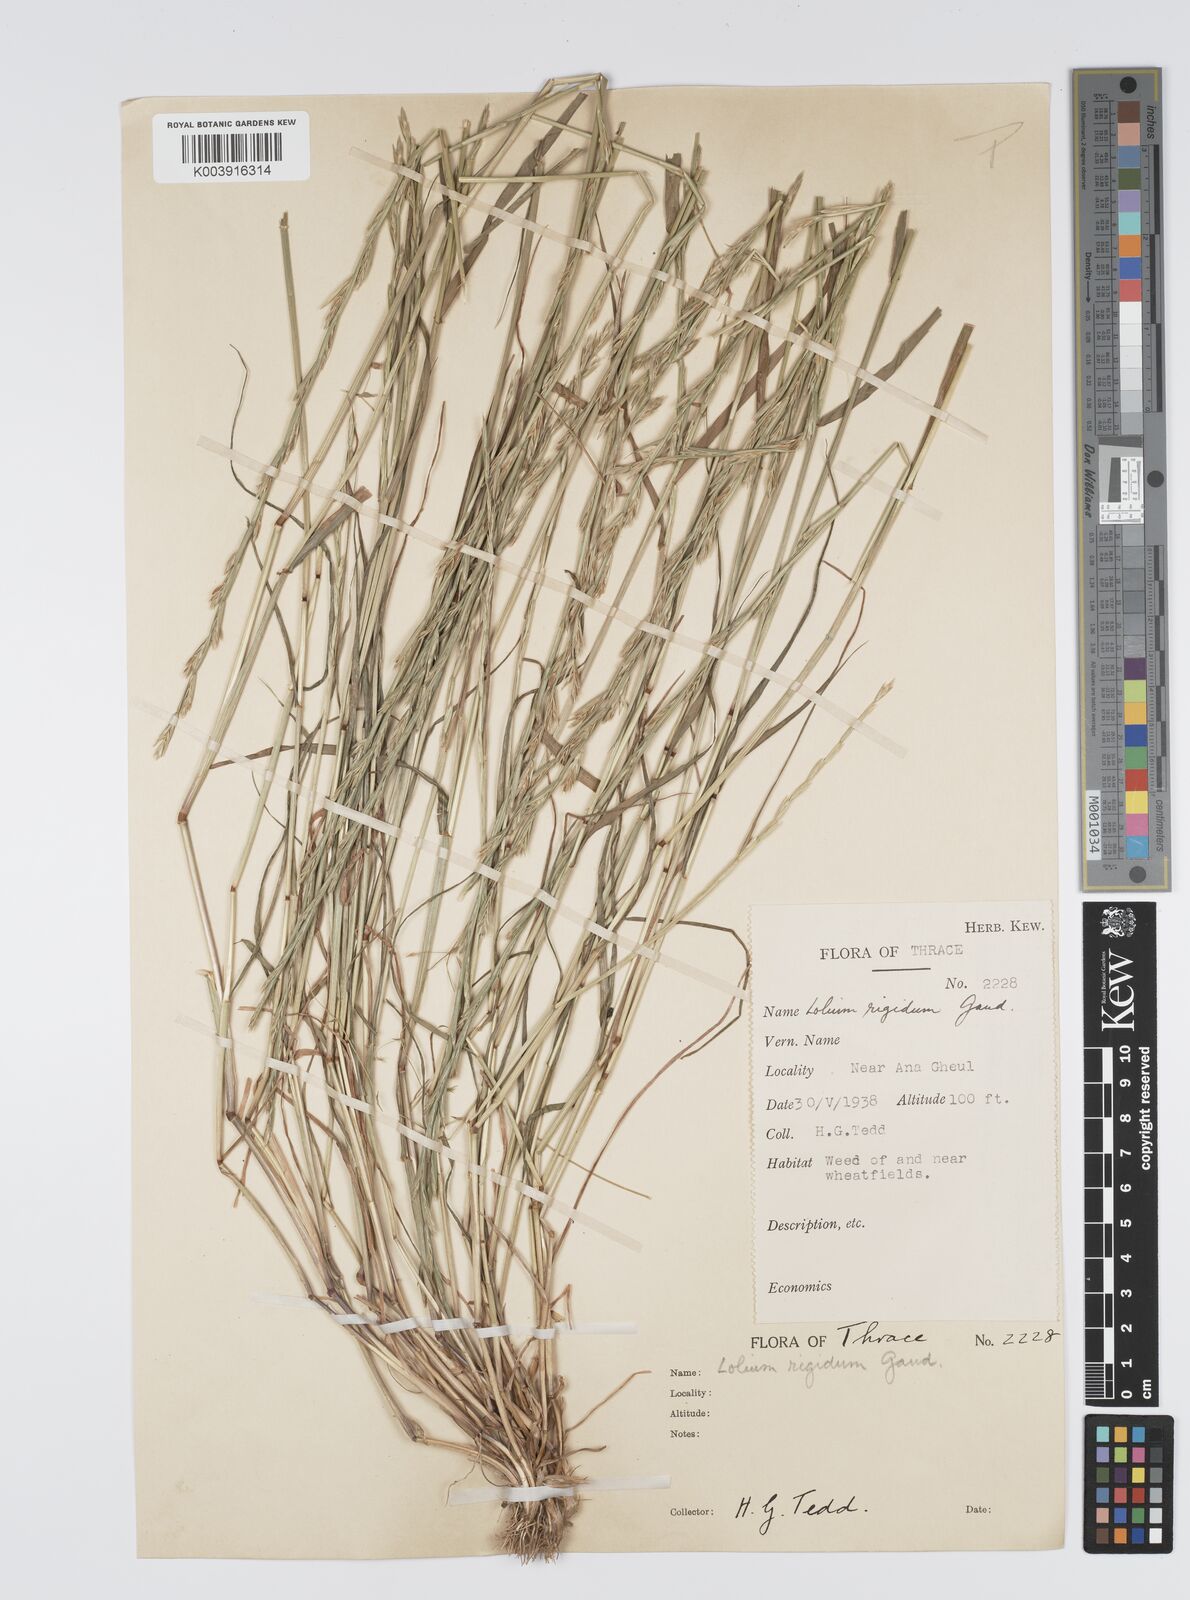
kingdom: Plantae
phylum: Tracheophyta
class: Liliopsida
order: Poales
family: Poaceae
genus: Lolium
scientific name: Lolium rigidum
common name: Wimmera ryegrass
